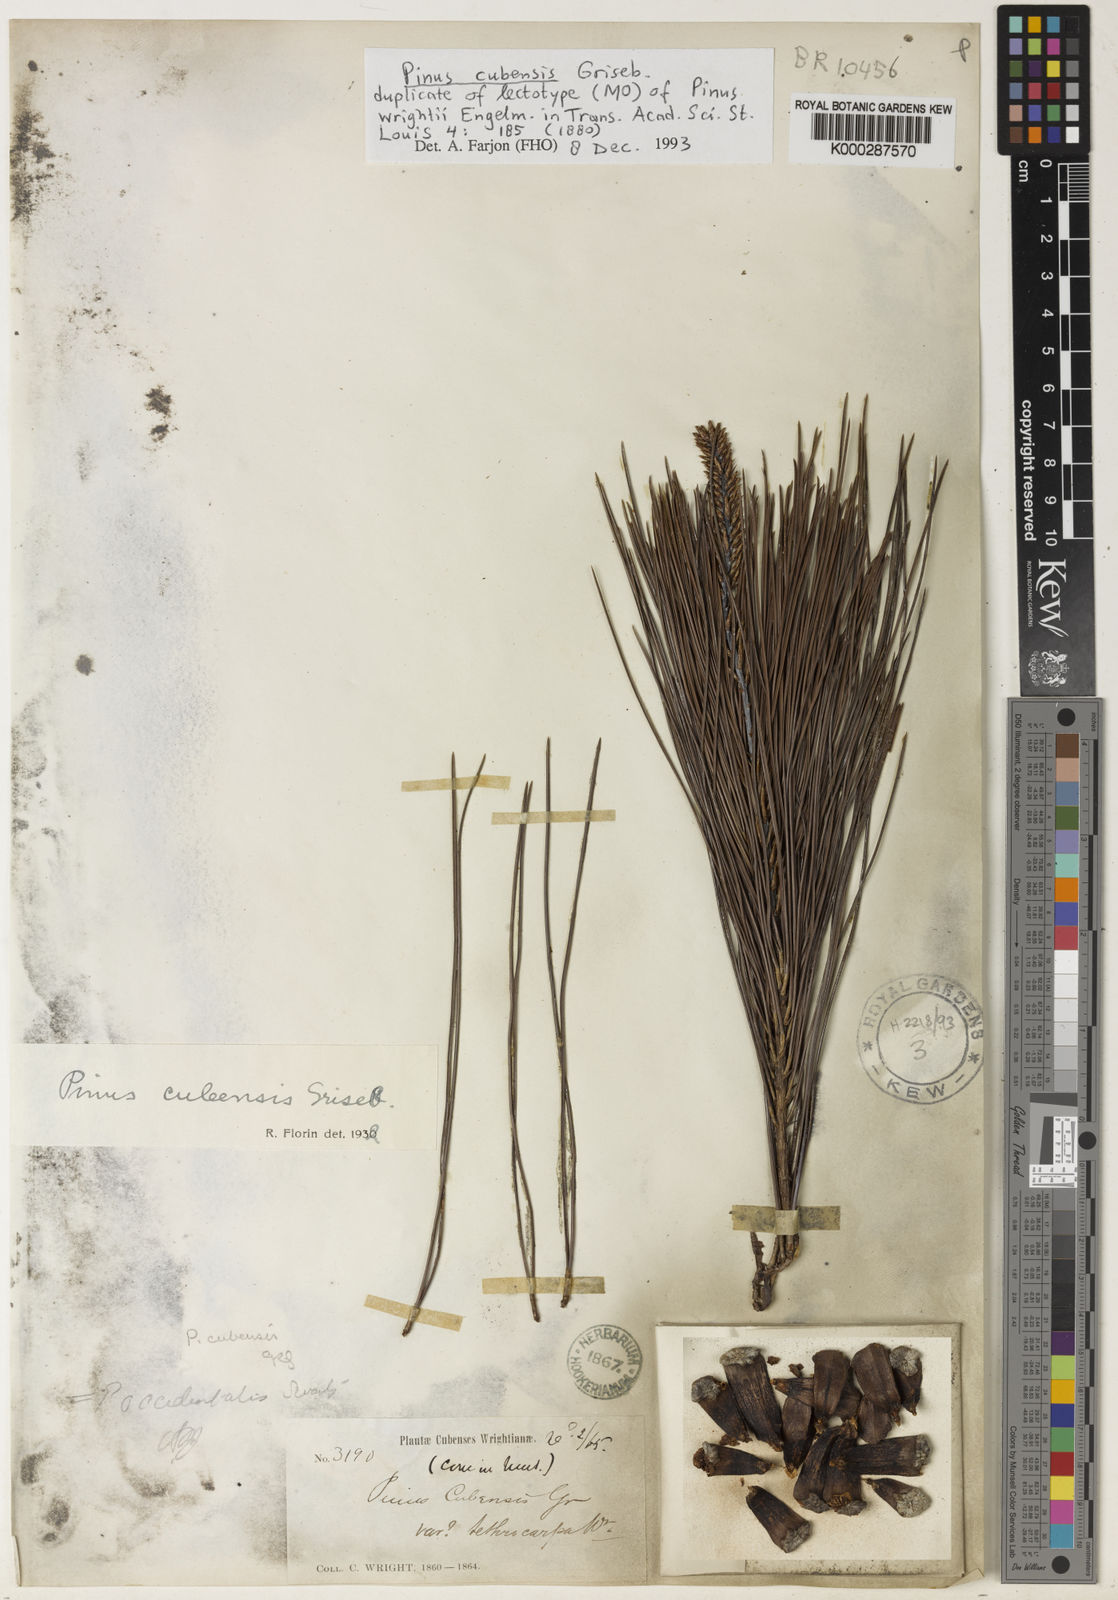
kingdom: Plantae
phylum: Tracheophyta
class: Pinopsida
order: Pinales
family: Pinaceae
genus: Pinus
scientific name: Pinus cubensis
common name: Cuban pine
